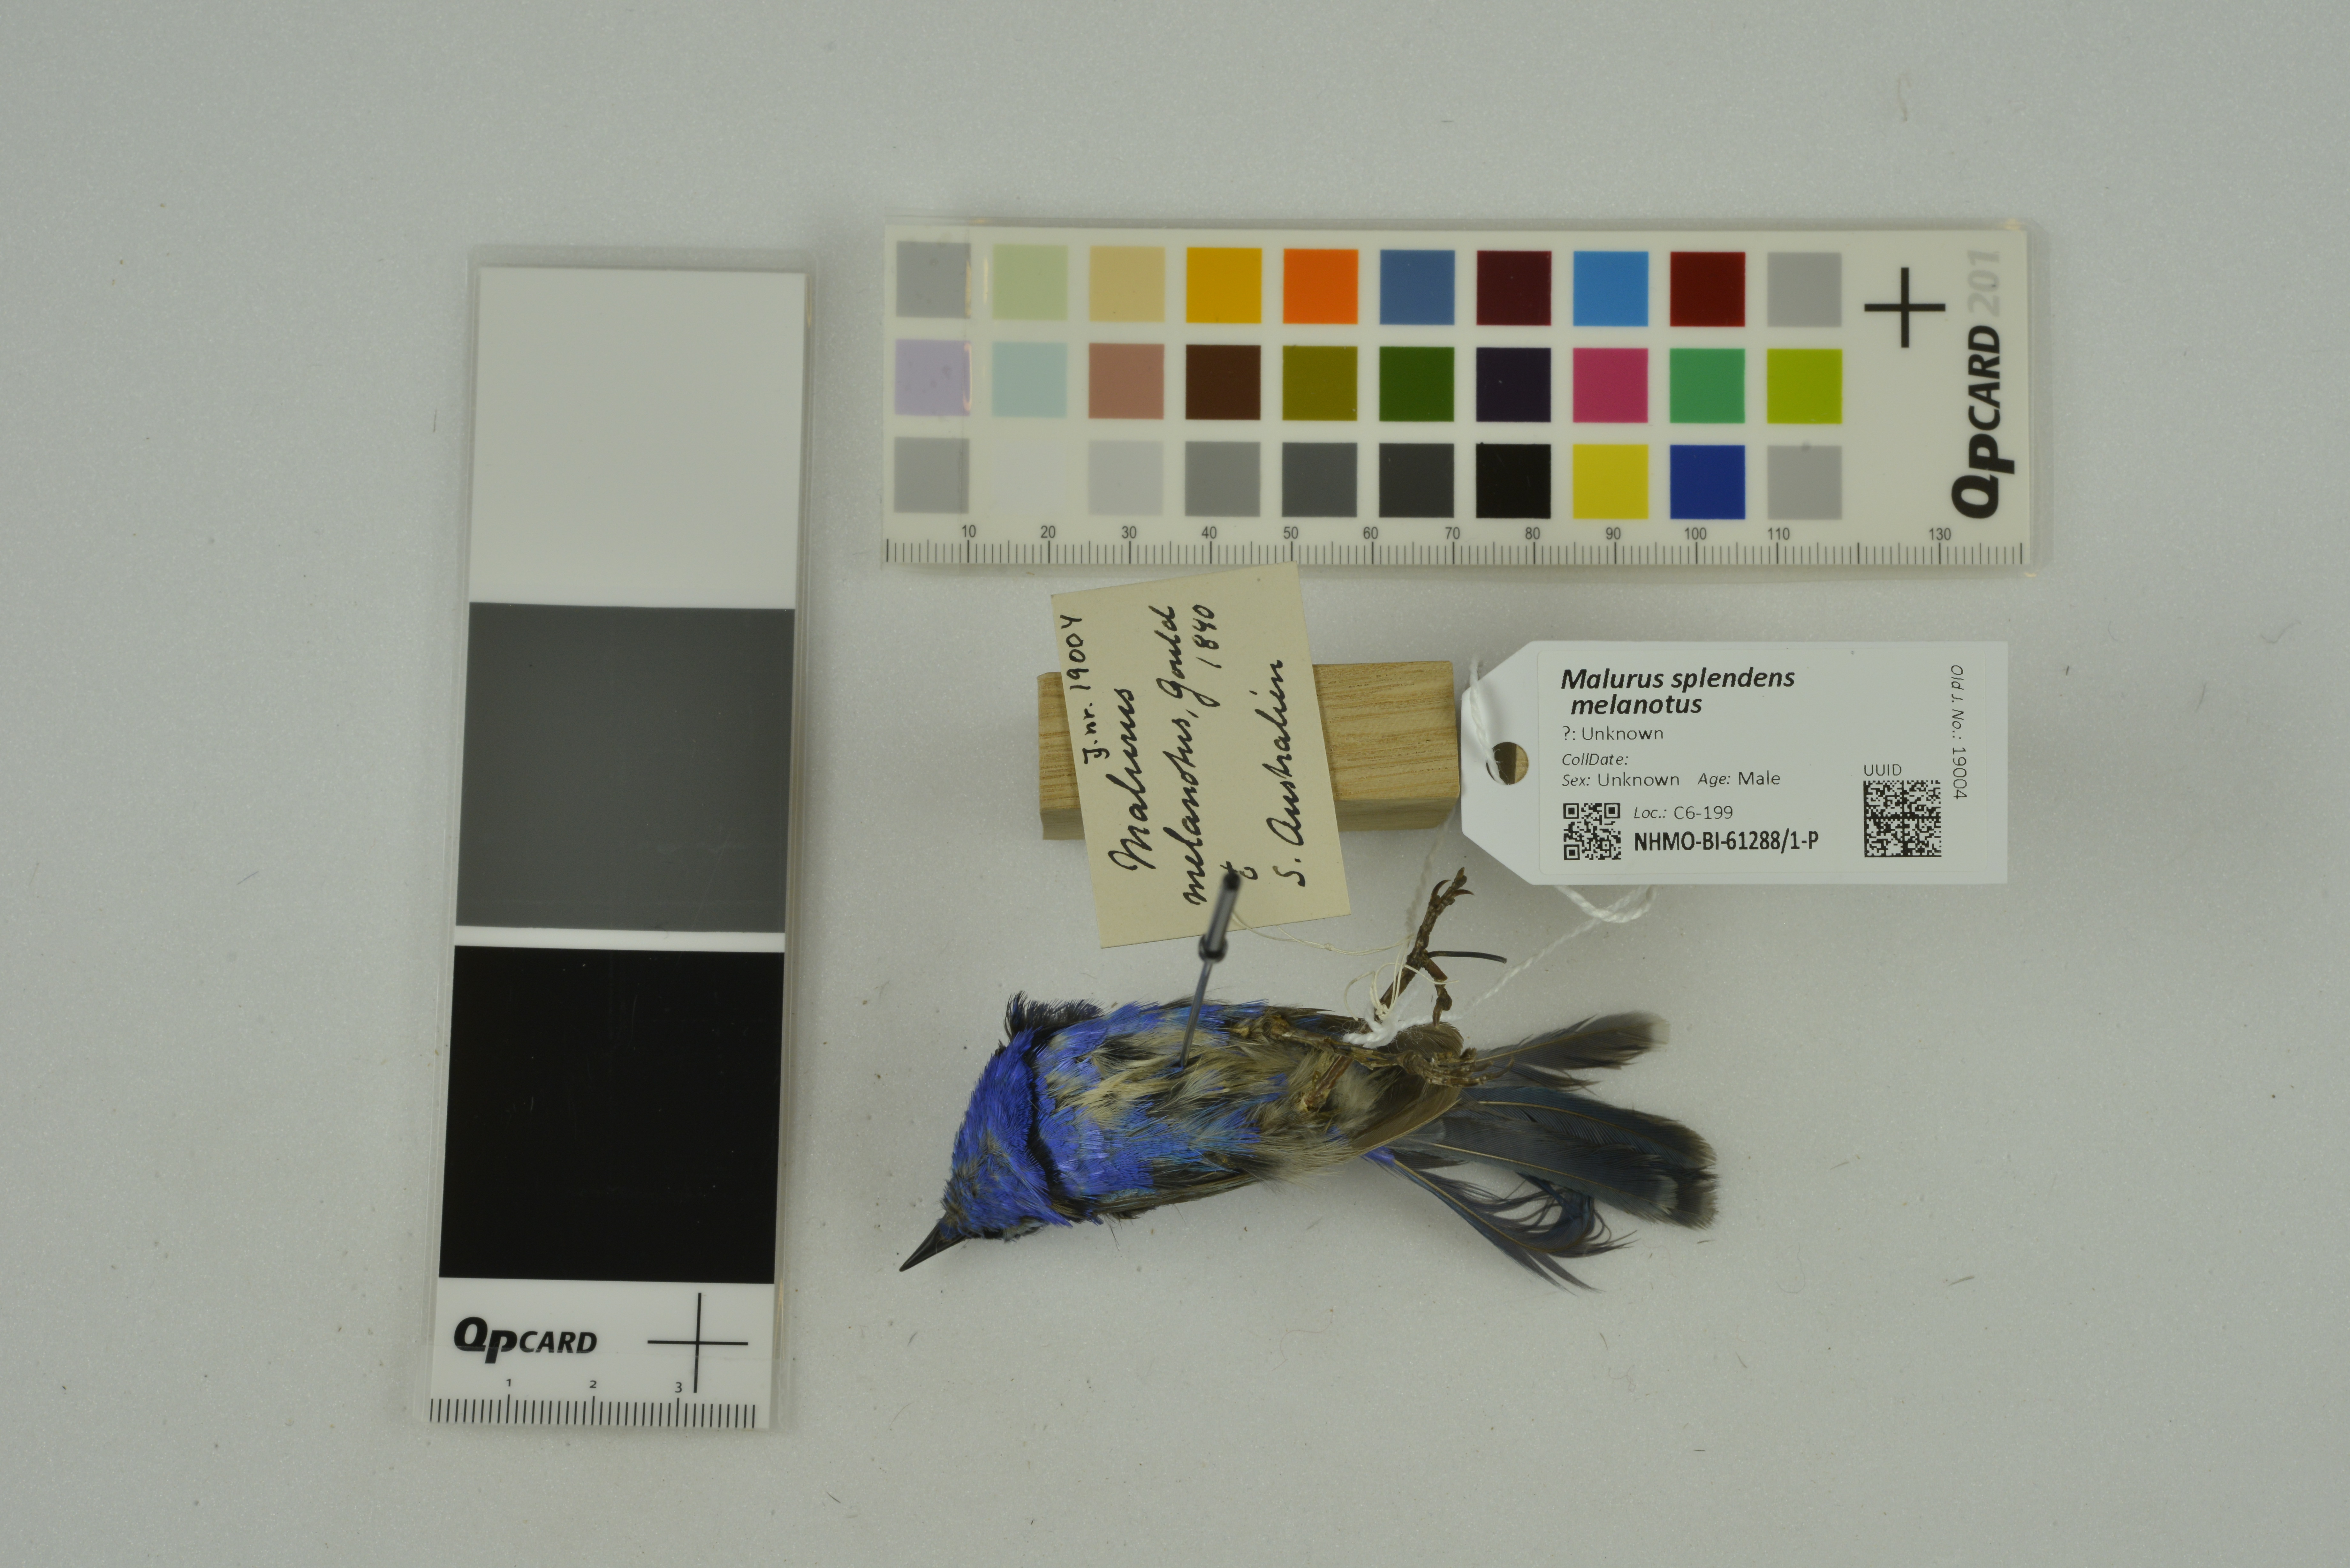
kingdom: Animalia
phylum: Chordata
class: Aves
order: Passeriformes
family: Maluridae
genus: Malurus
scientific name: Malurus splendens
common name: Splendid fairywren
